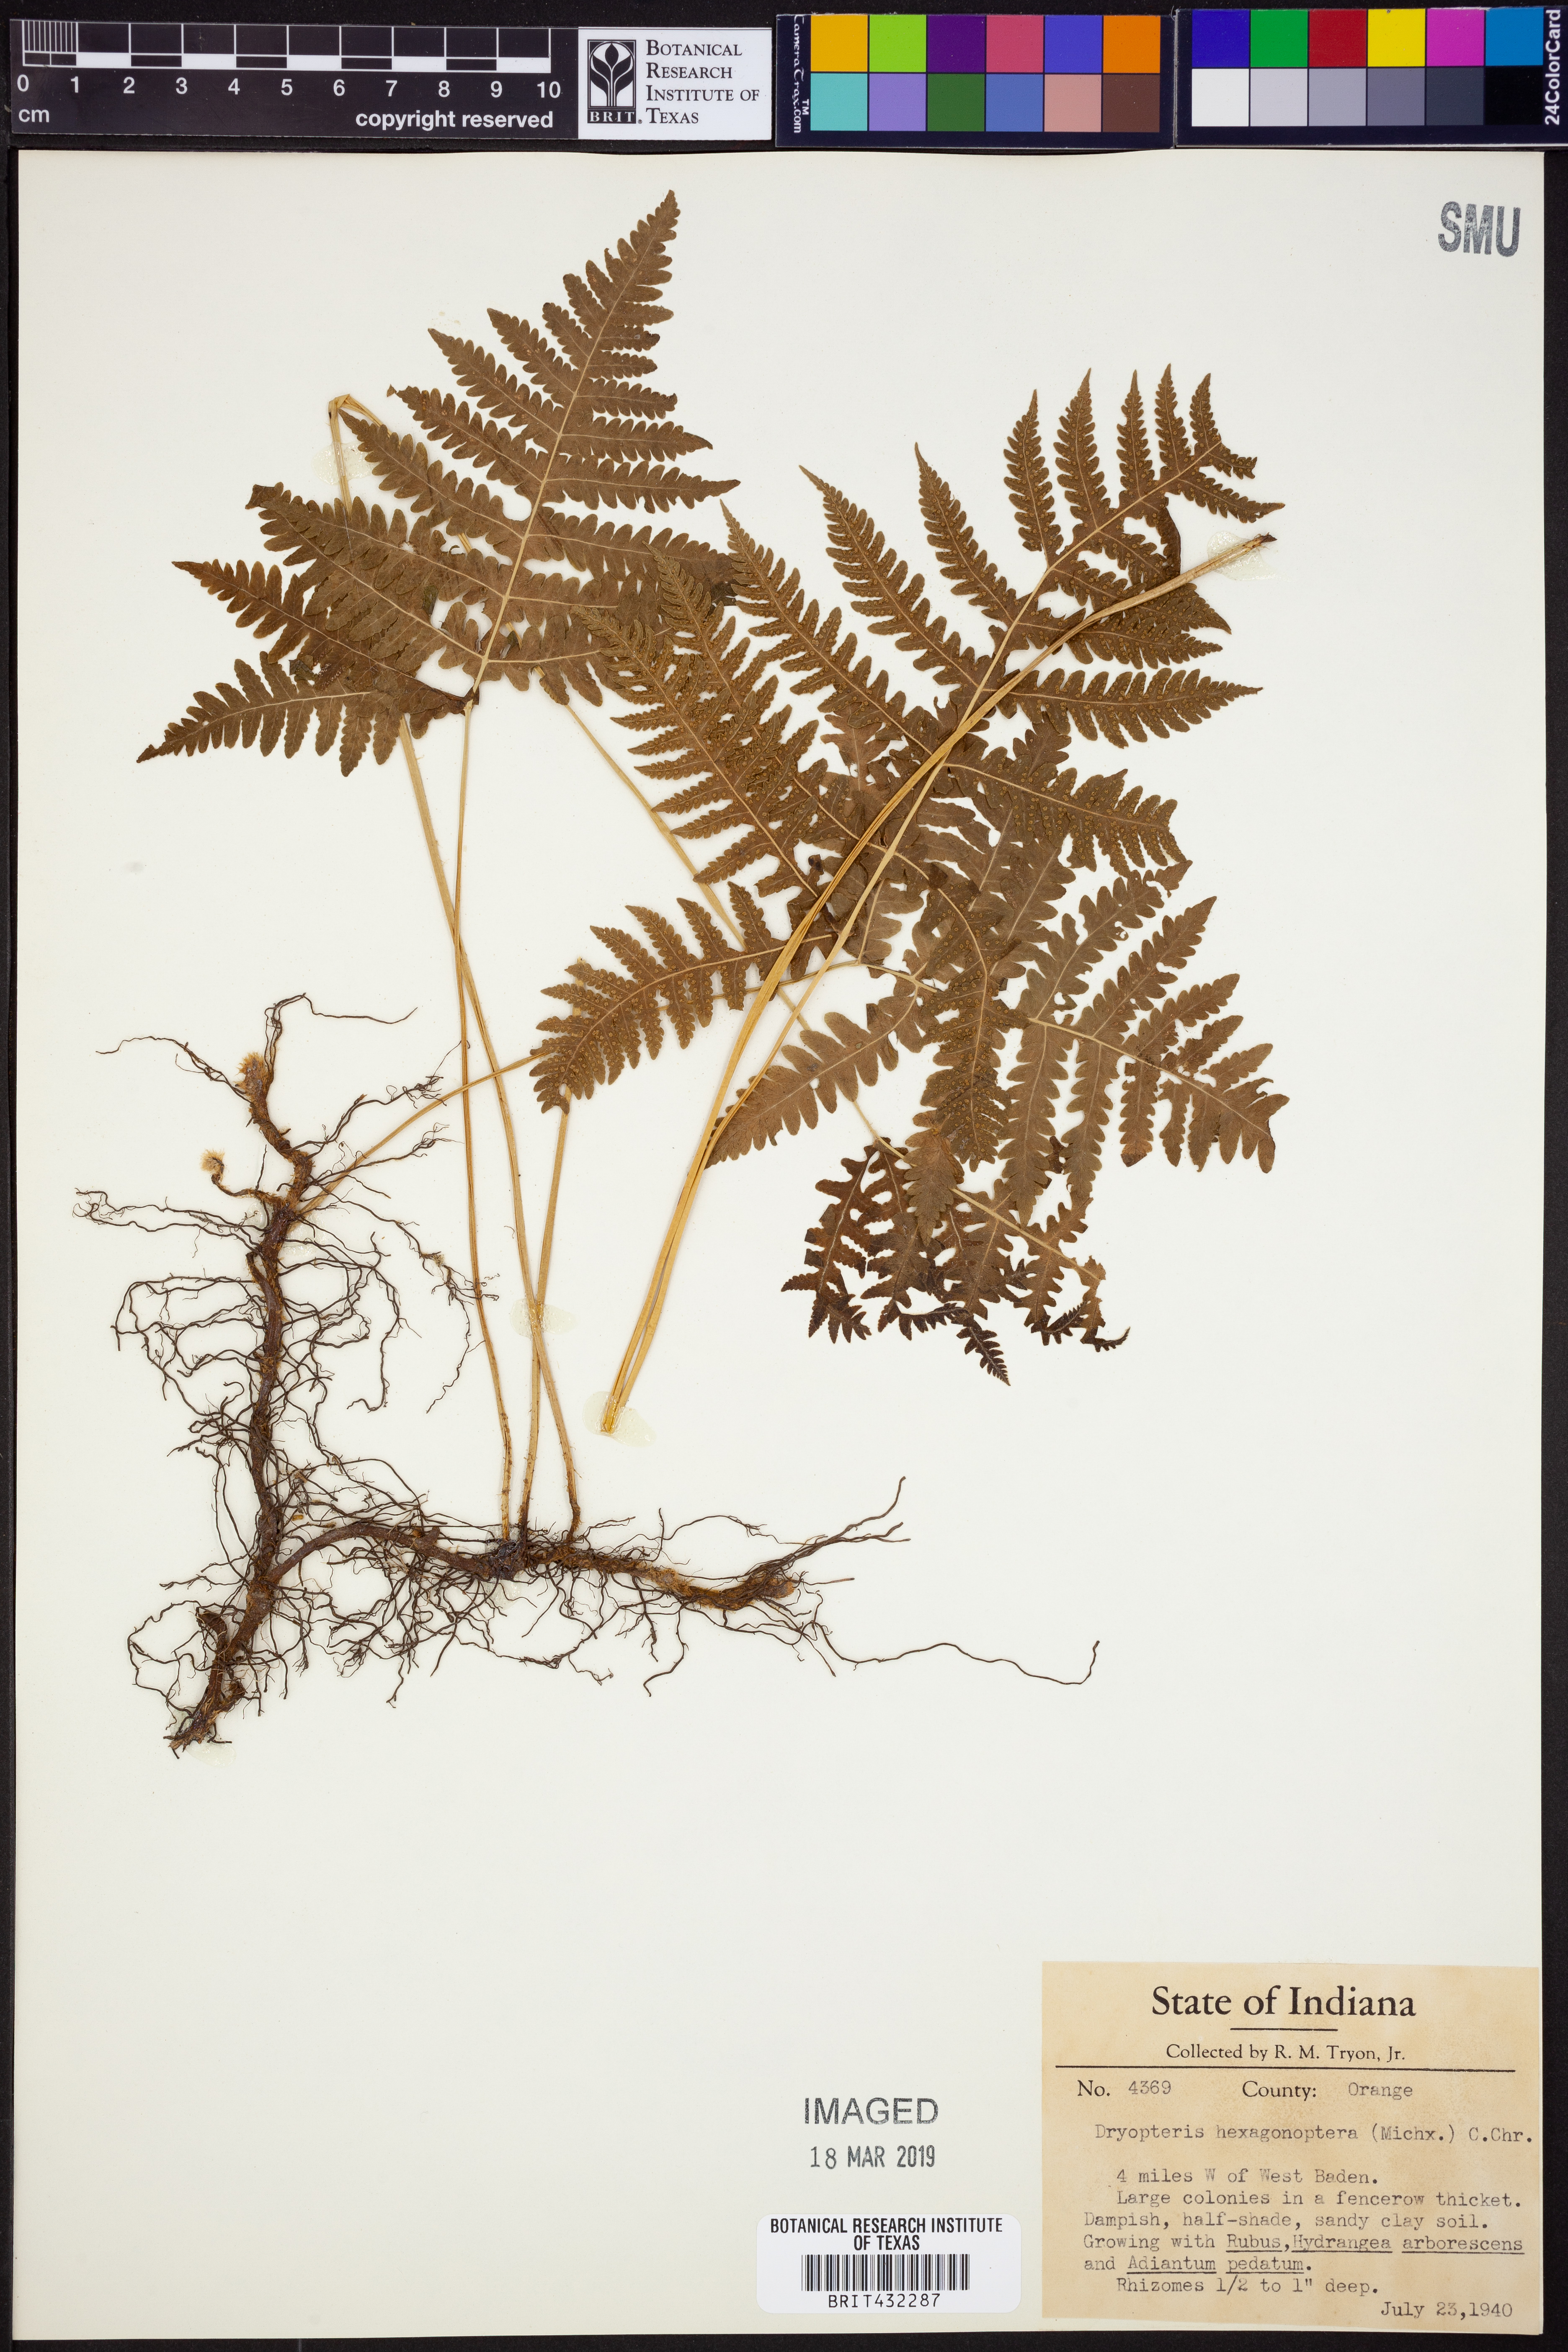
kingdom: Plantae
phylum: Tracheophyta
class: Polypodiopsida
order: Polypodiales
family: Dryopteridaceae
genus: Dryopteris
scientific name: Dryopteris hexagonaptera
